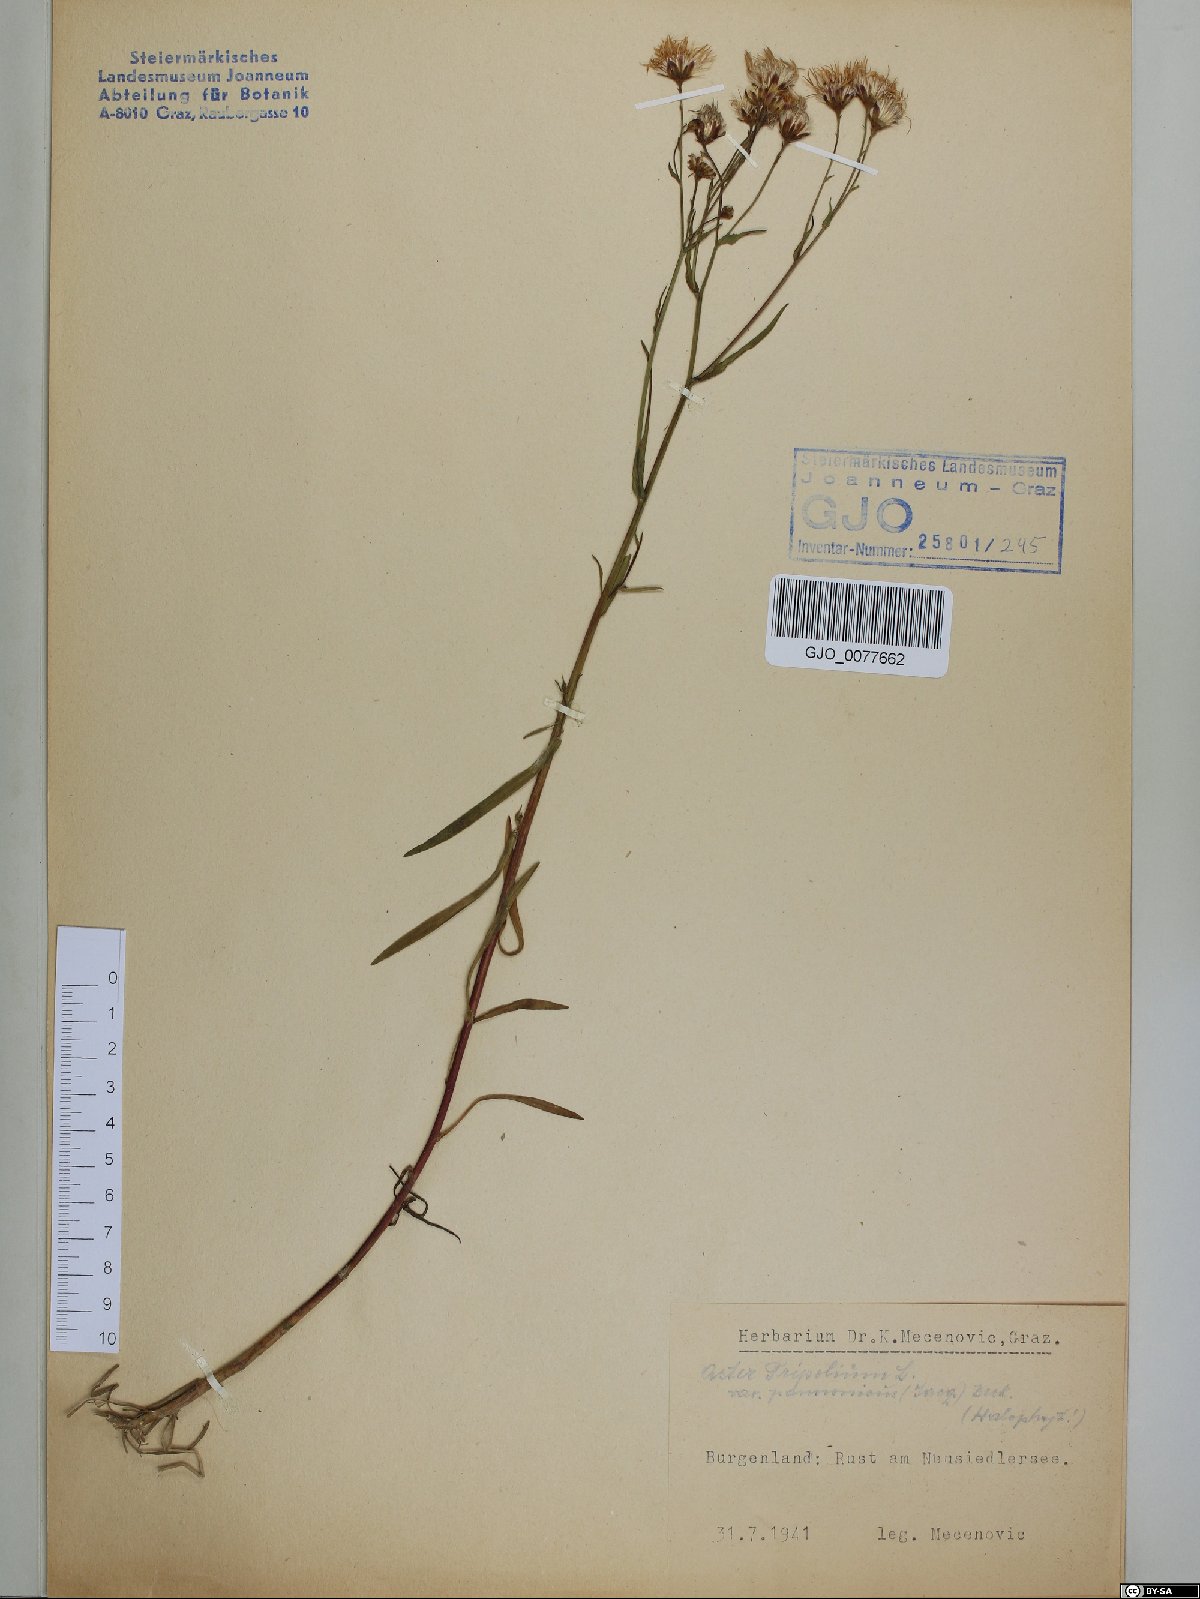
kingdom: Plantae
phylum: Tracheophyta
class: Magnoliopsida
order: Asterales
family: Asteraceae
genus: Tripolium
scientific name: Tripolium pannonicum
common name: Sea aster
